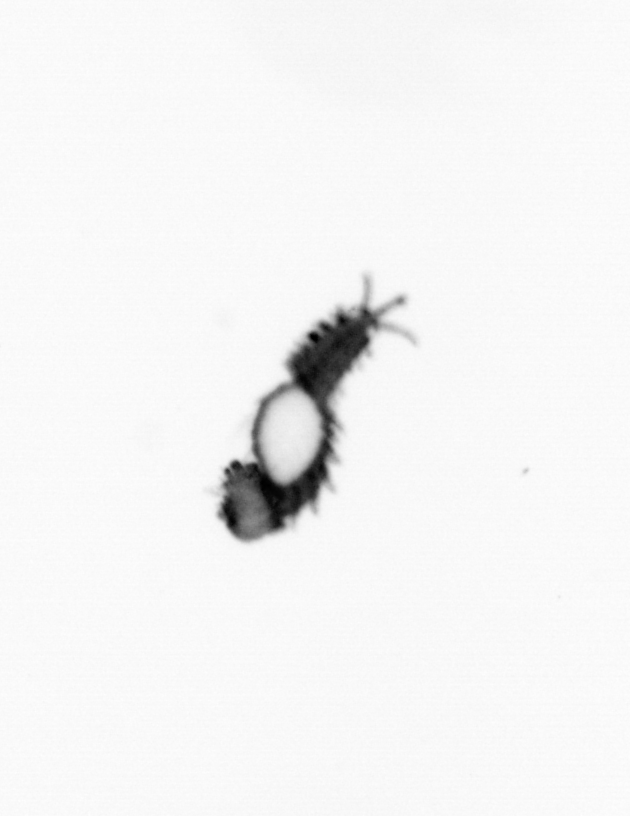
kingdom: Animalia
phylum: Annelida
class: Polychaeta
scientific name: Polychaeta
